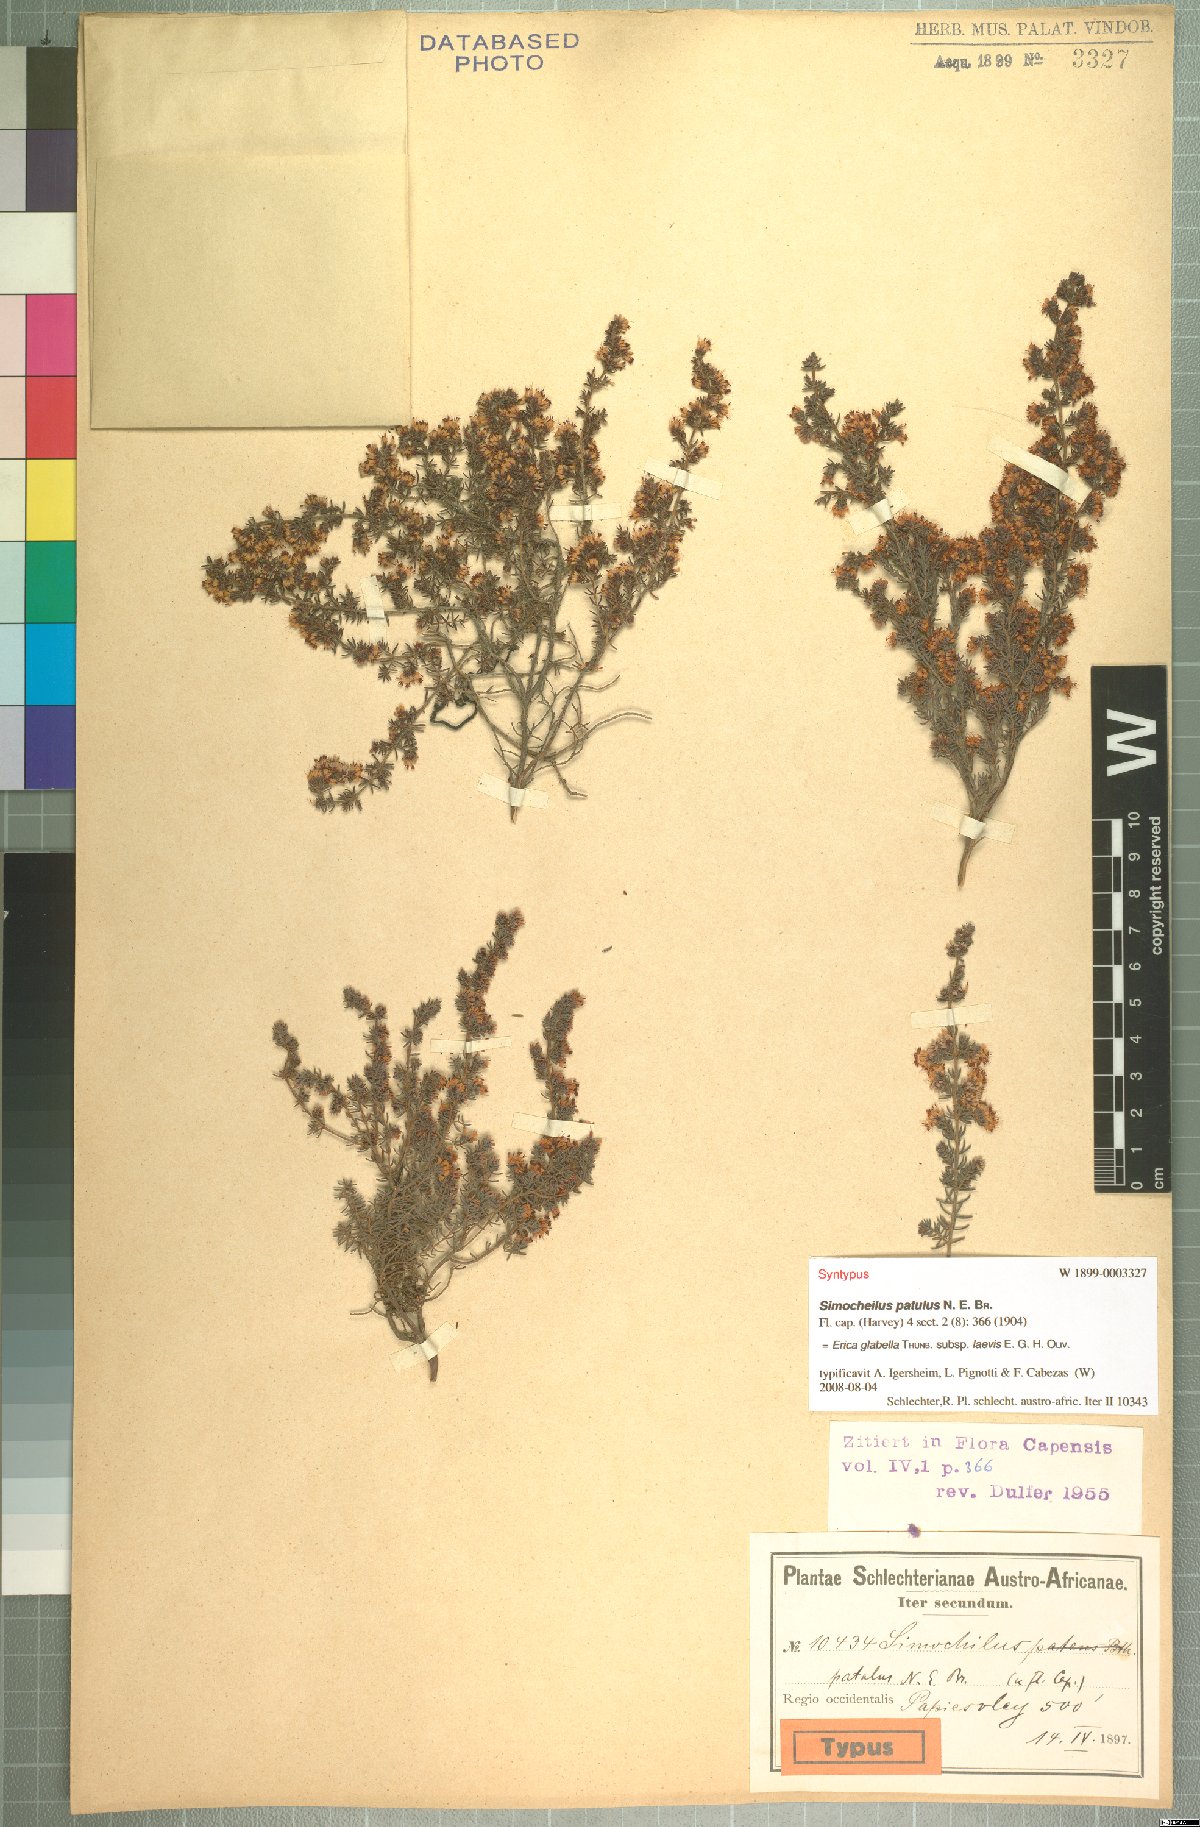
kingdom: Plantae
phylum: Tracheophyta
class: Magnoliopsida
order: Ericales
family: Ericaceae
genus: Erica
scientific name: Erica glabella
